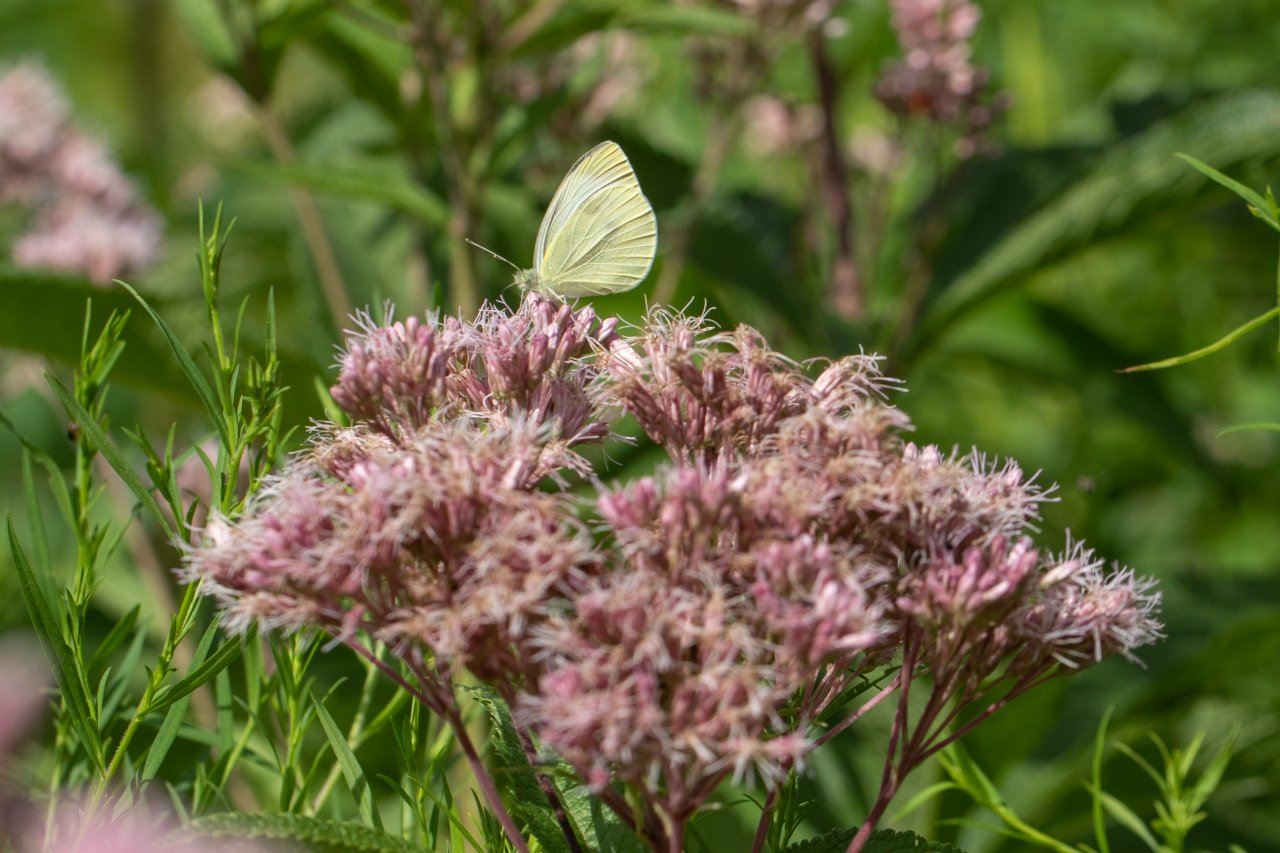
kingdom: Animalia
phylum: Arthropoda
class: Insecta
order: Lepidoptera
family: Pieridae
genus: Pieris
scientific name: Pieris rapae
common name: Cabbage White
